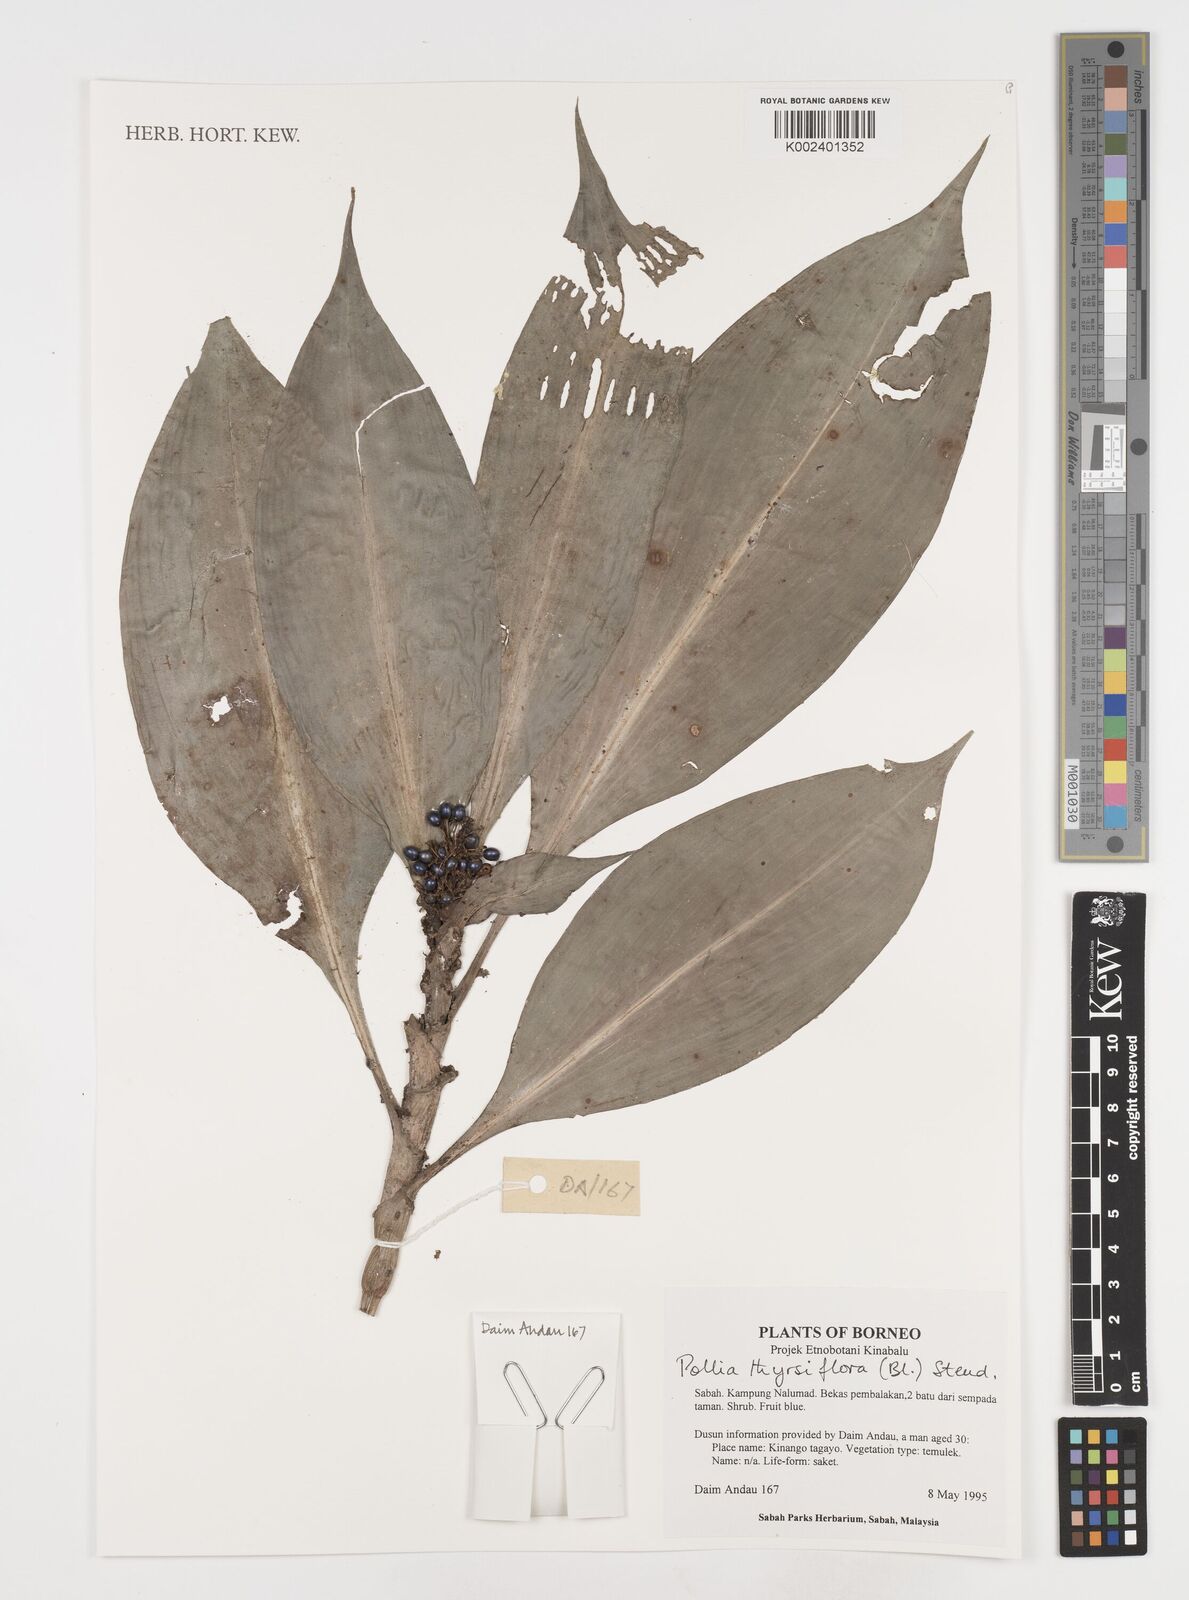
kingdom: Plantae
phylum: Tracheophyta
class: Liliopsida
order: Commelinales
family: Commelinaceae
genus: Pollia
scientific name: Pollia thyrsiflora
